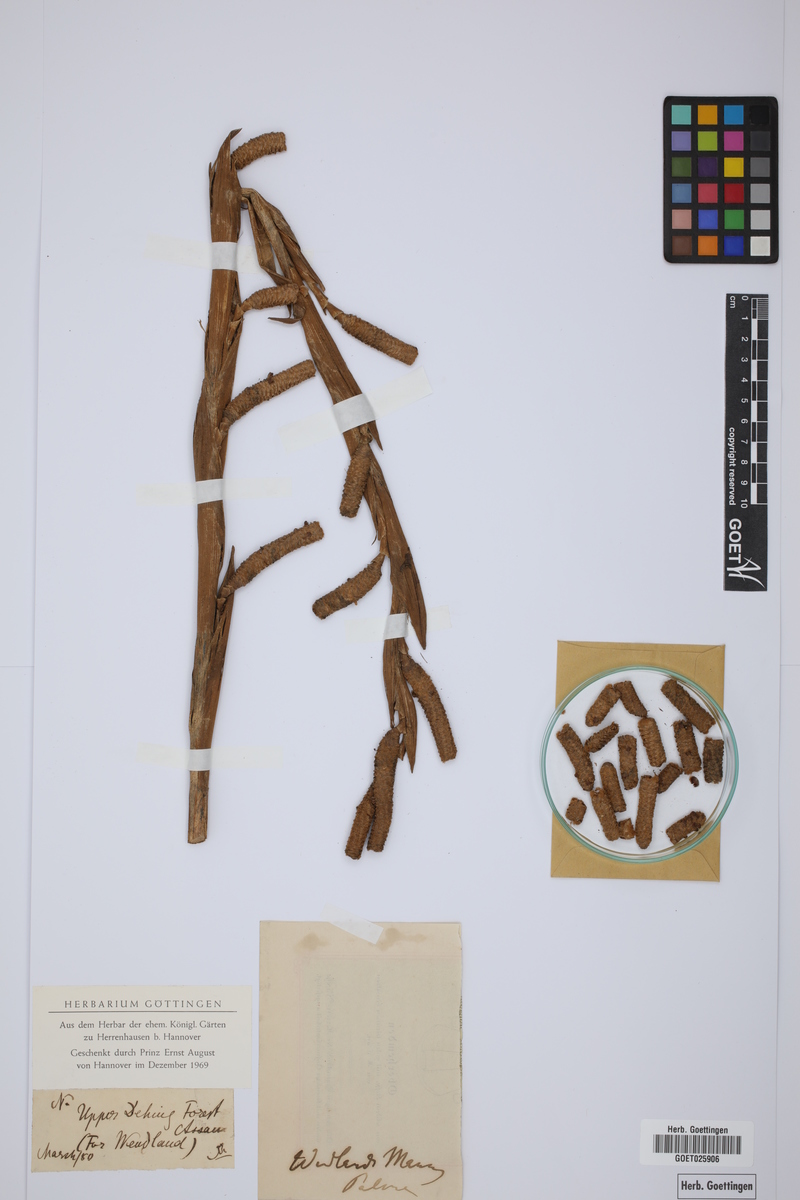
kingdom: Plantae
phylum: Tracheophyta
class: Liliopsida
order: Arecales
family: Arecaceae
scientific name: Arecaceae
